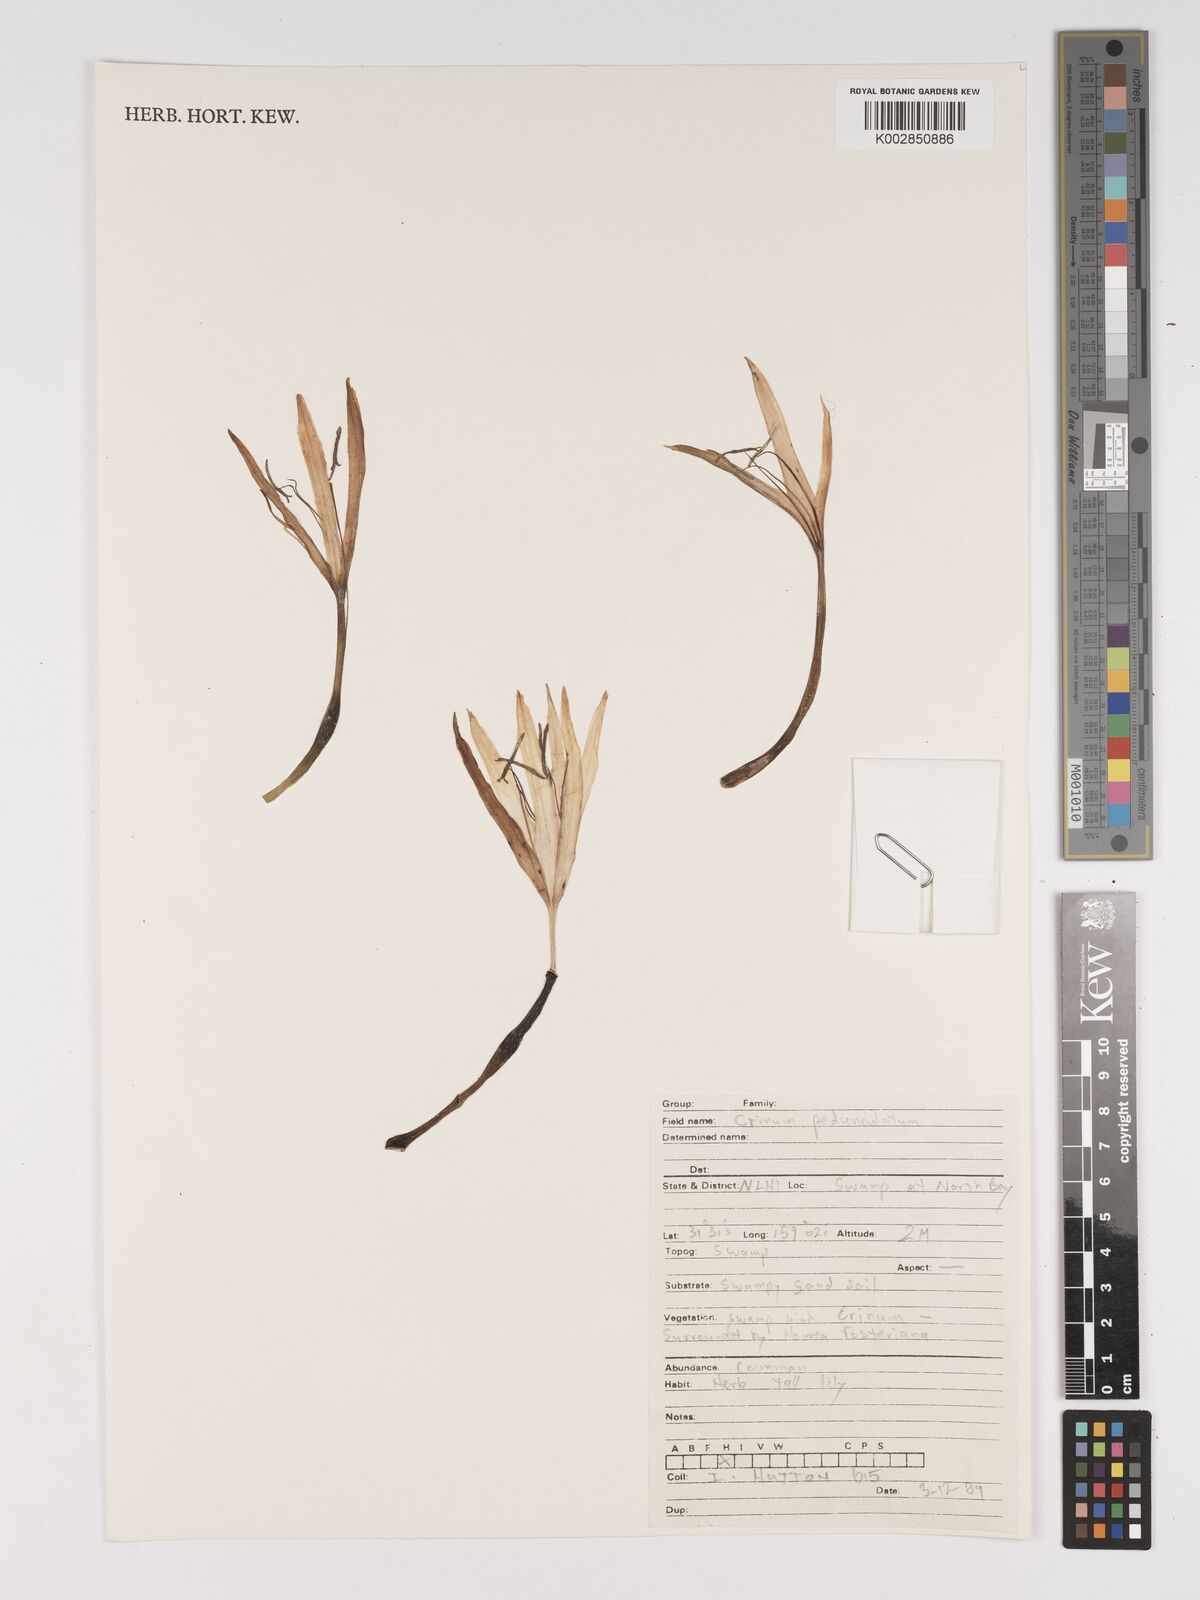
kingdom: Plantae
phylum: Tracheophyta
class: Liliopsida
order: Asparagales
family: Amaryllidaceae
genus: Crinum
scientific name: Crinum asiaticum
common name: Poisonbulb
